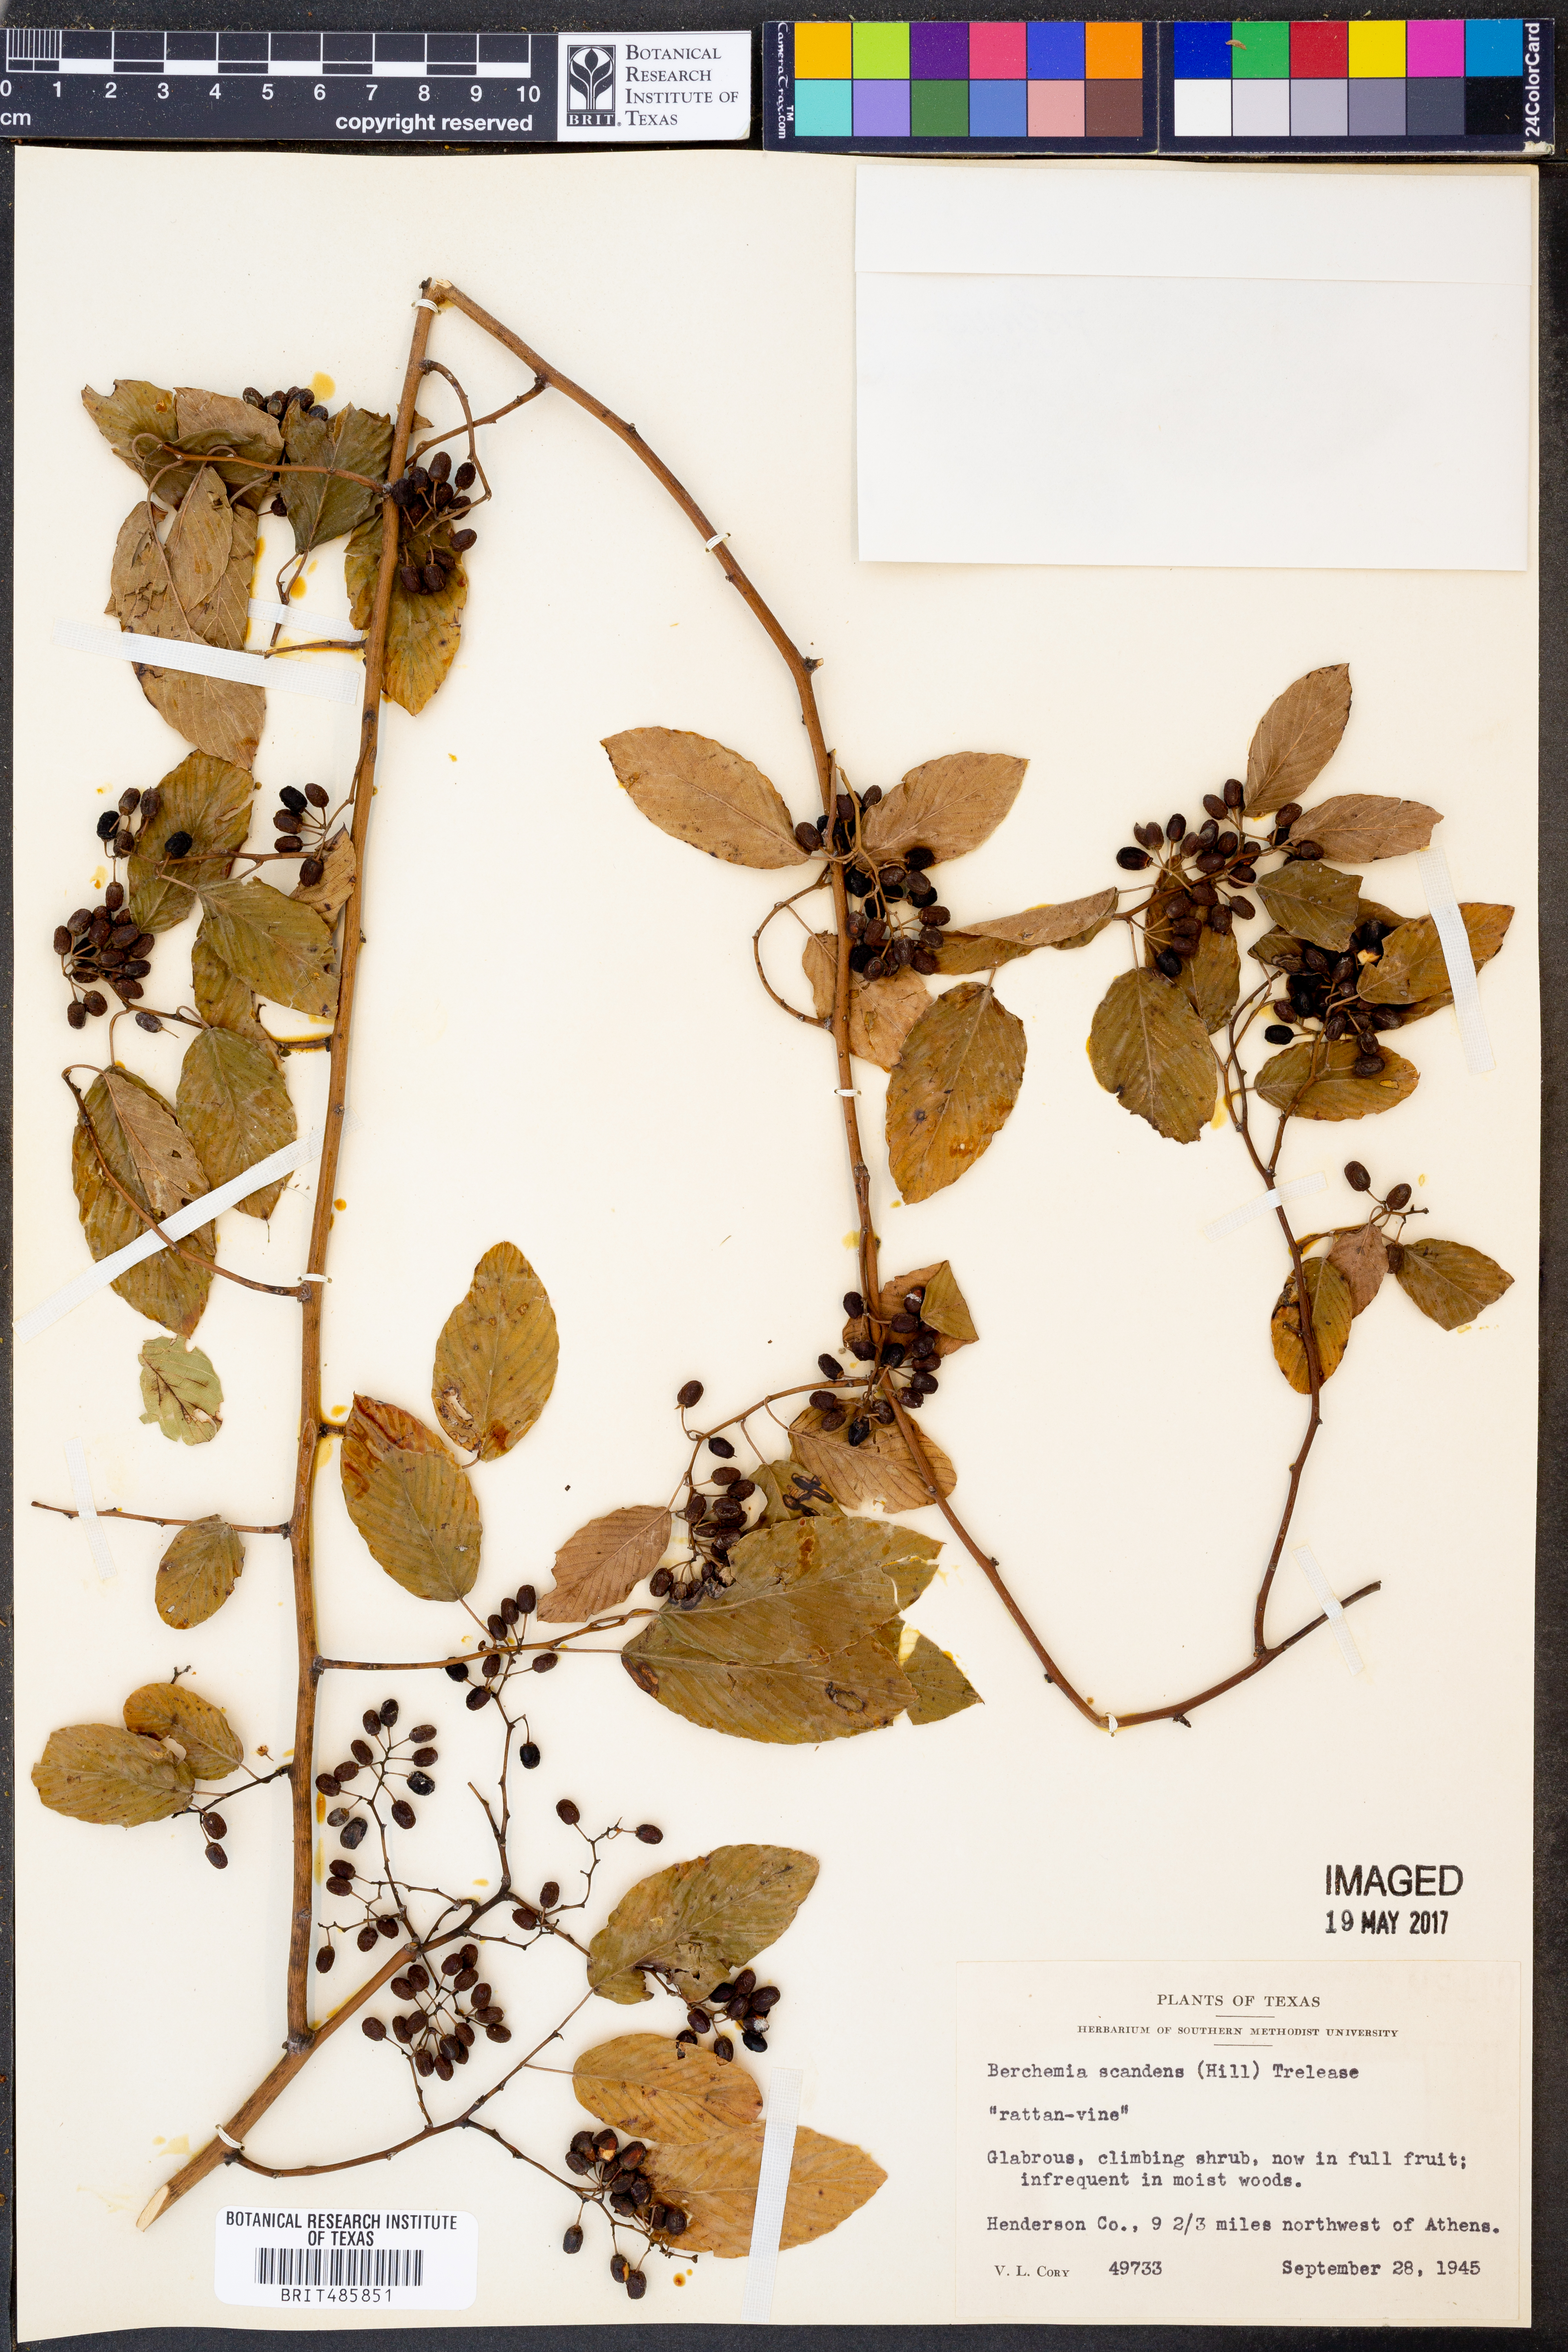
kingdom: Plantae
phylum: Tracheophyta
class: Magnoliopsida
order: Rosales
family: Rhamnaceae
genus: Berchemia
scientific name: Berchemia scandens
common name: Supplejack
